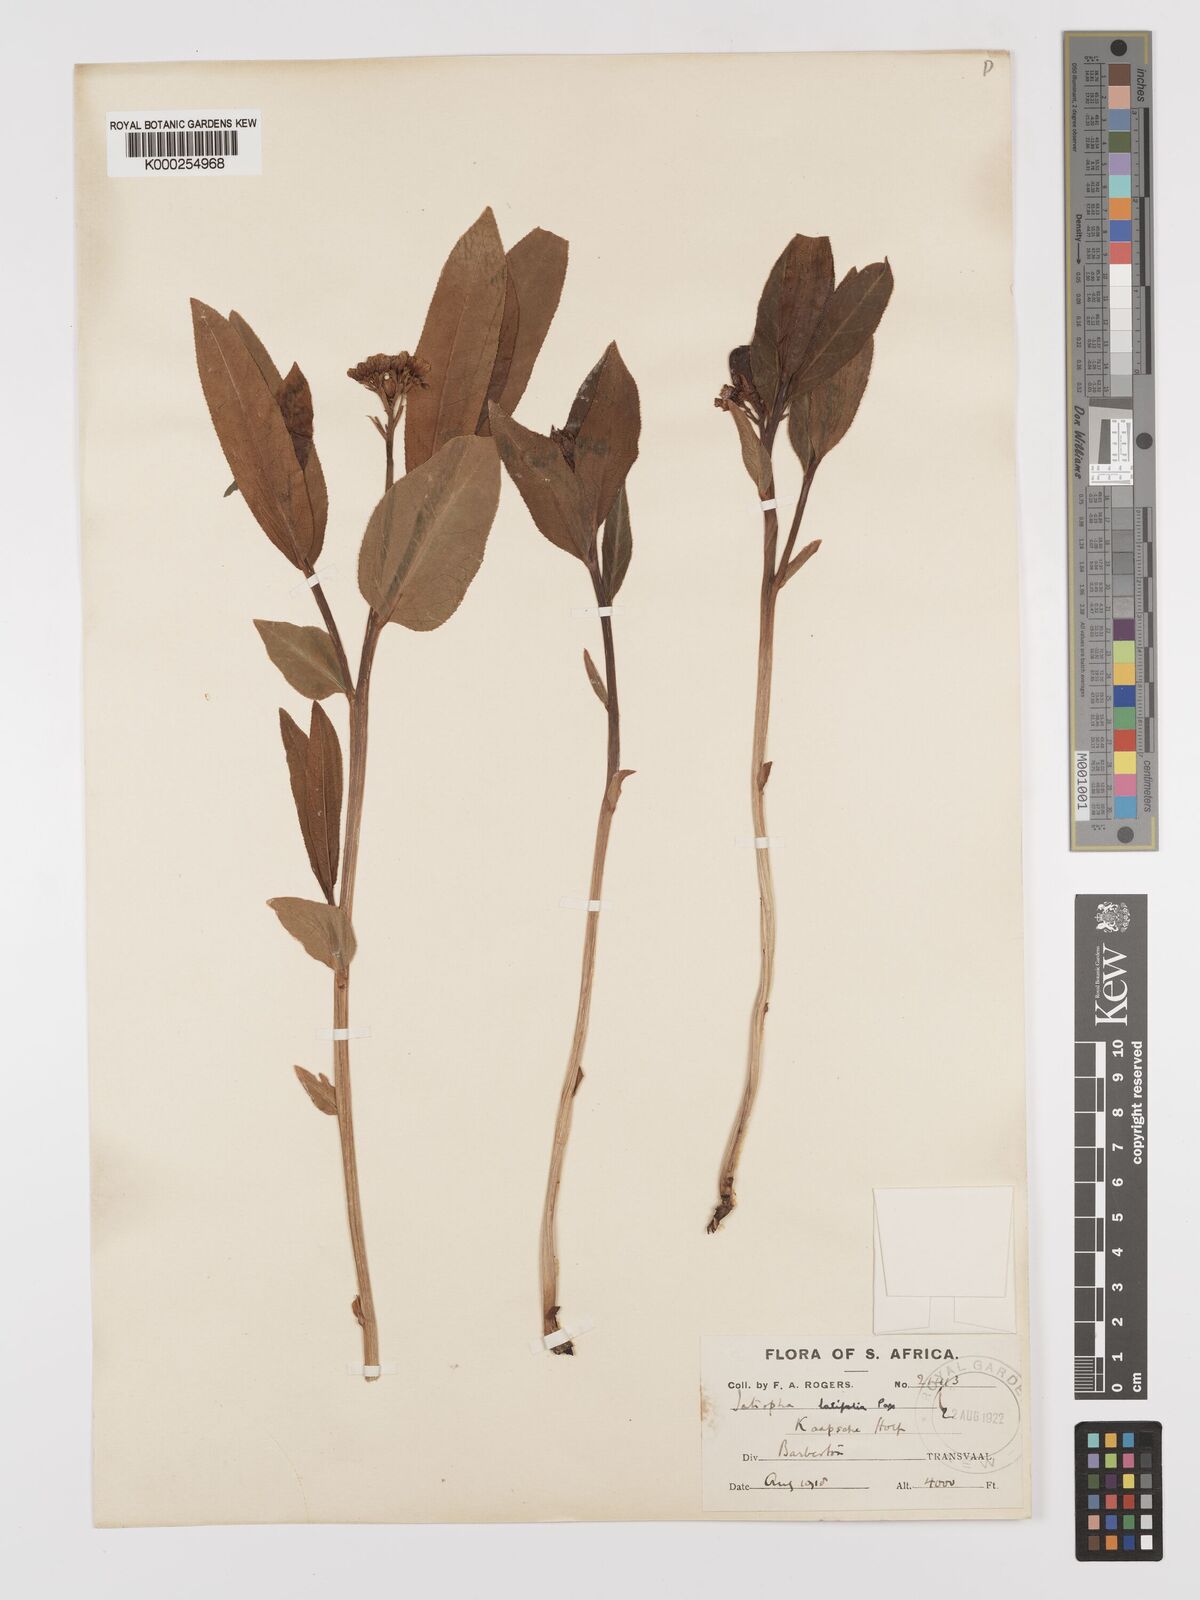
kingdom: Plantae
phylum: Tracheophyta
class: Magnoliopsida
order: Malpighiales
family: Euphorbiaceae
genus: Jatropha
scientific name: Jatropha latifolia
